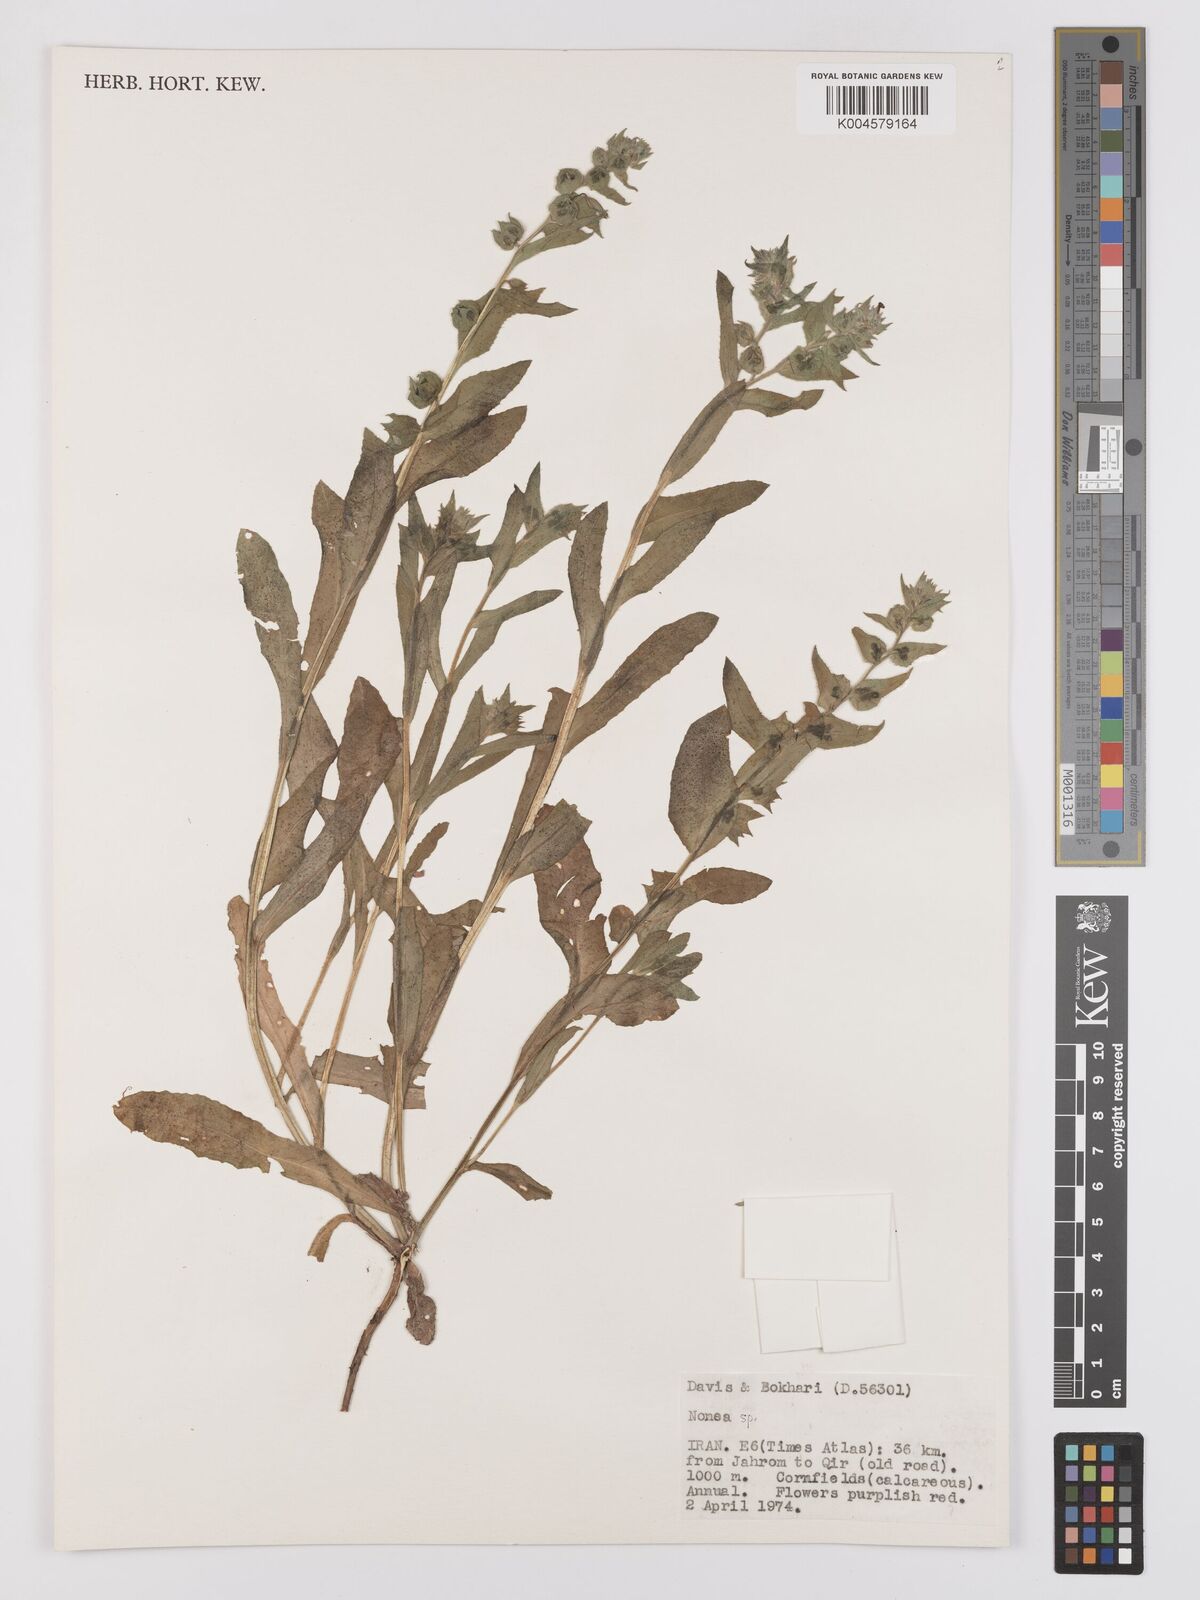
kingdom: Plantae
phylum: Tracheophyta
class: Magnoliopsida
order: Boraginales
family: Boraginaceae
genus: Nonea
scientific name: Nonea
